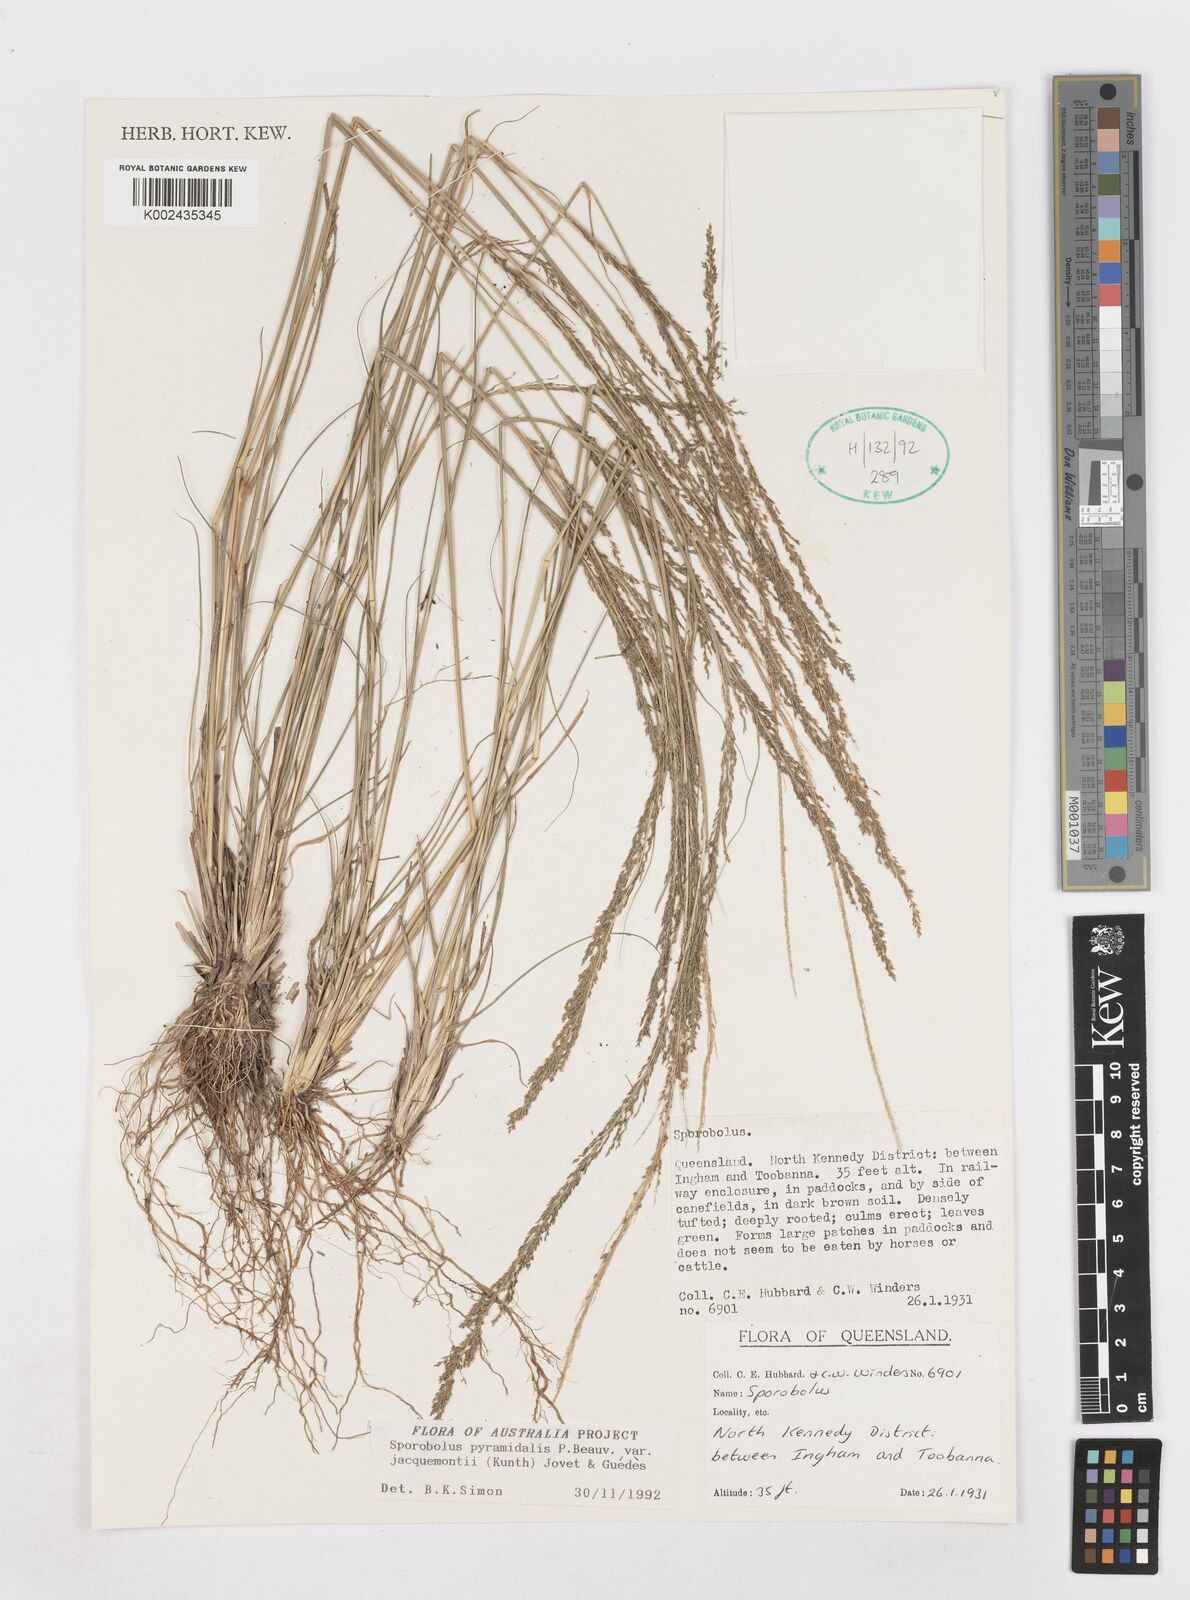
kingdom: Plantae
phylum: Tracheophyta
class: Liliopsida
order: Poales
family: Poaceae
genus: Sporobolus
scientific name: Sporobolus pyramidalis
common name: West indian dropseed
